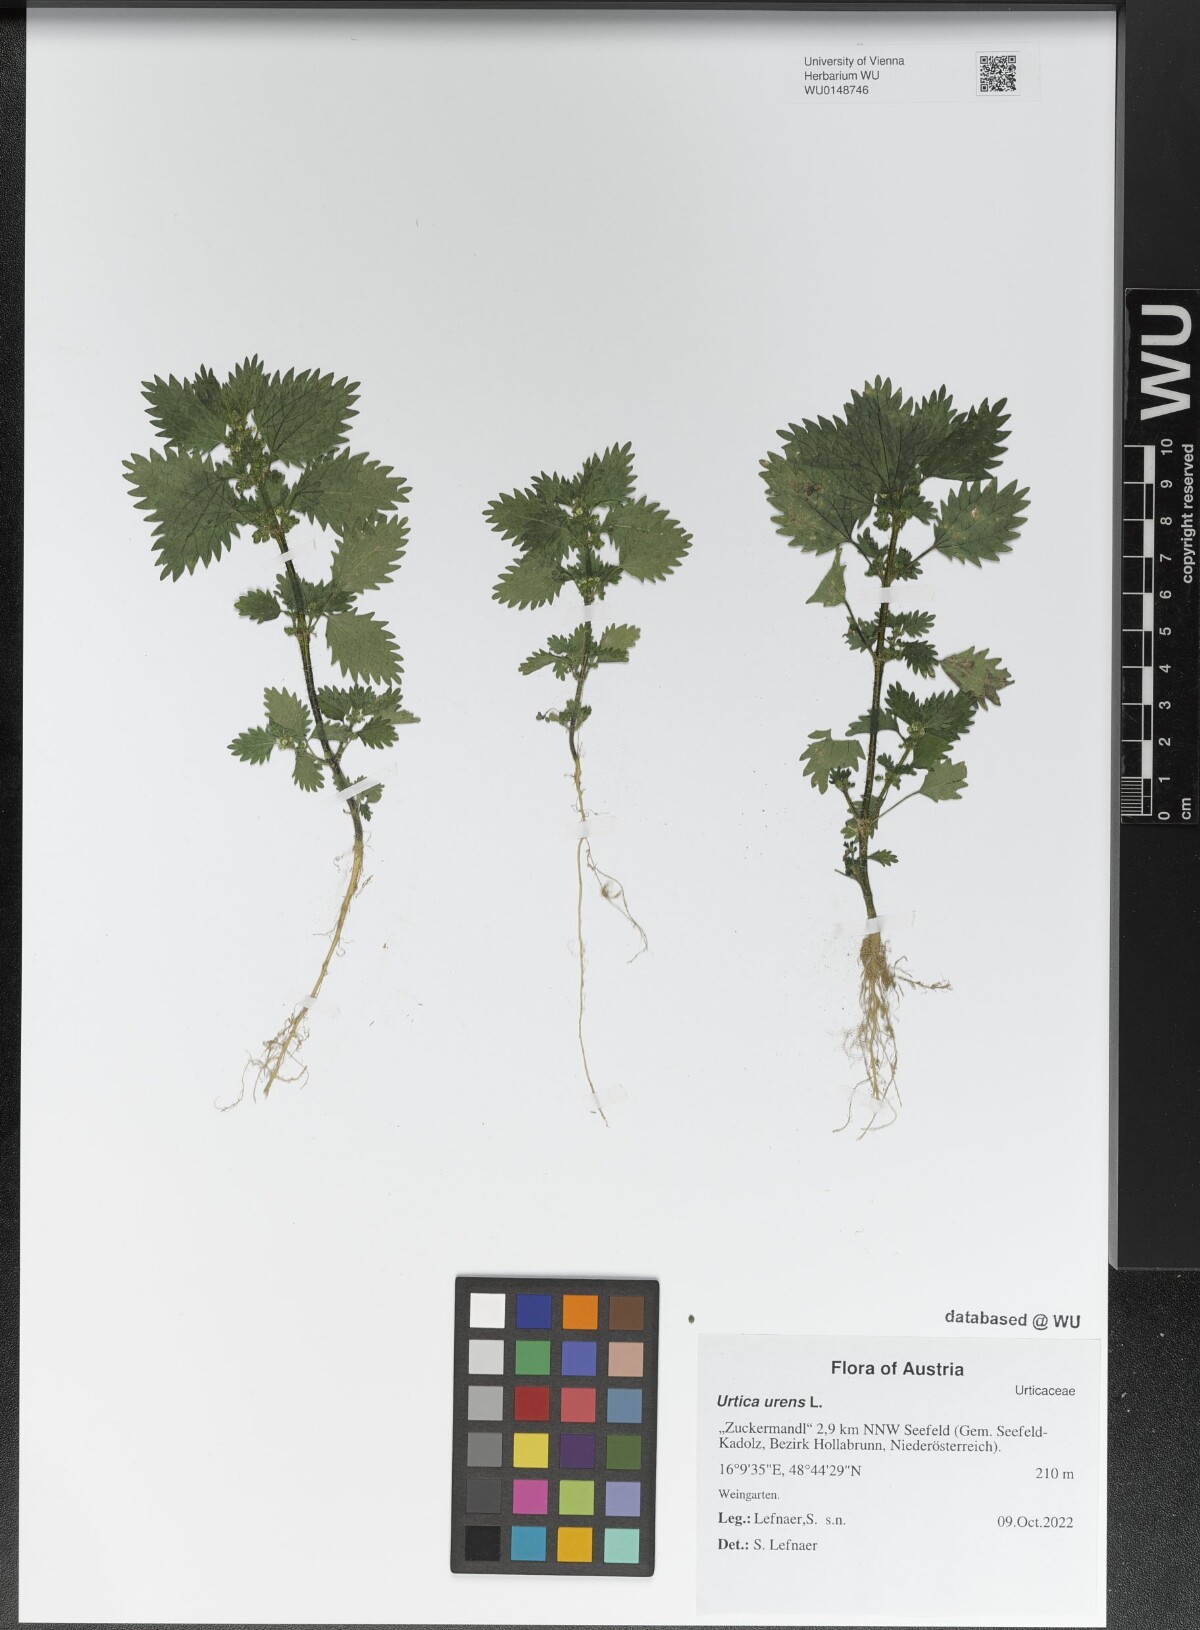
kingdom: Plantae
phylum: Tracheophyta
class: Magnoliopsida
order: Rosales
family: Urticaceae
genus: Urtica
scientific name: Urtica urens
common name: Dwarf nettle
